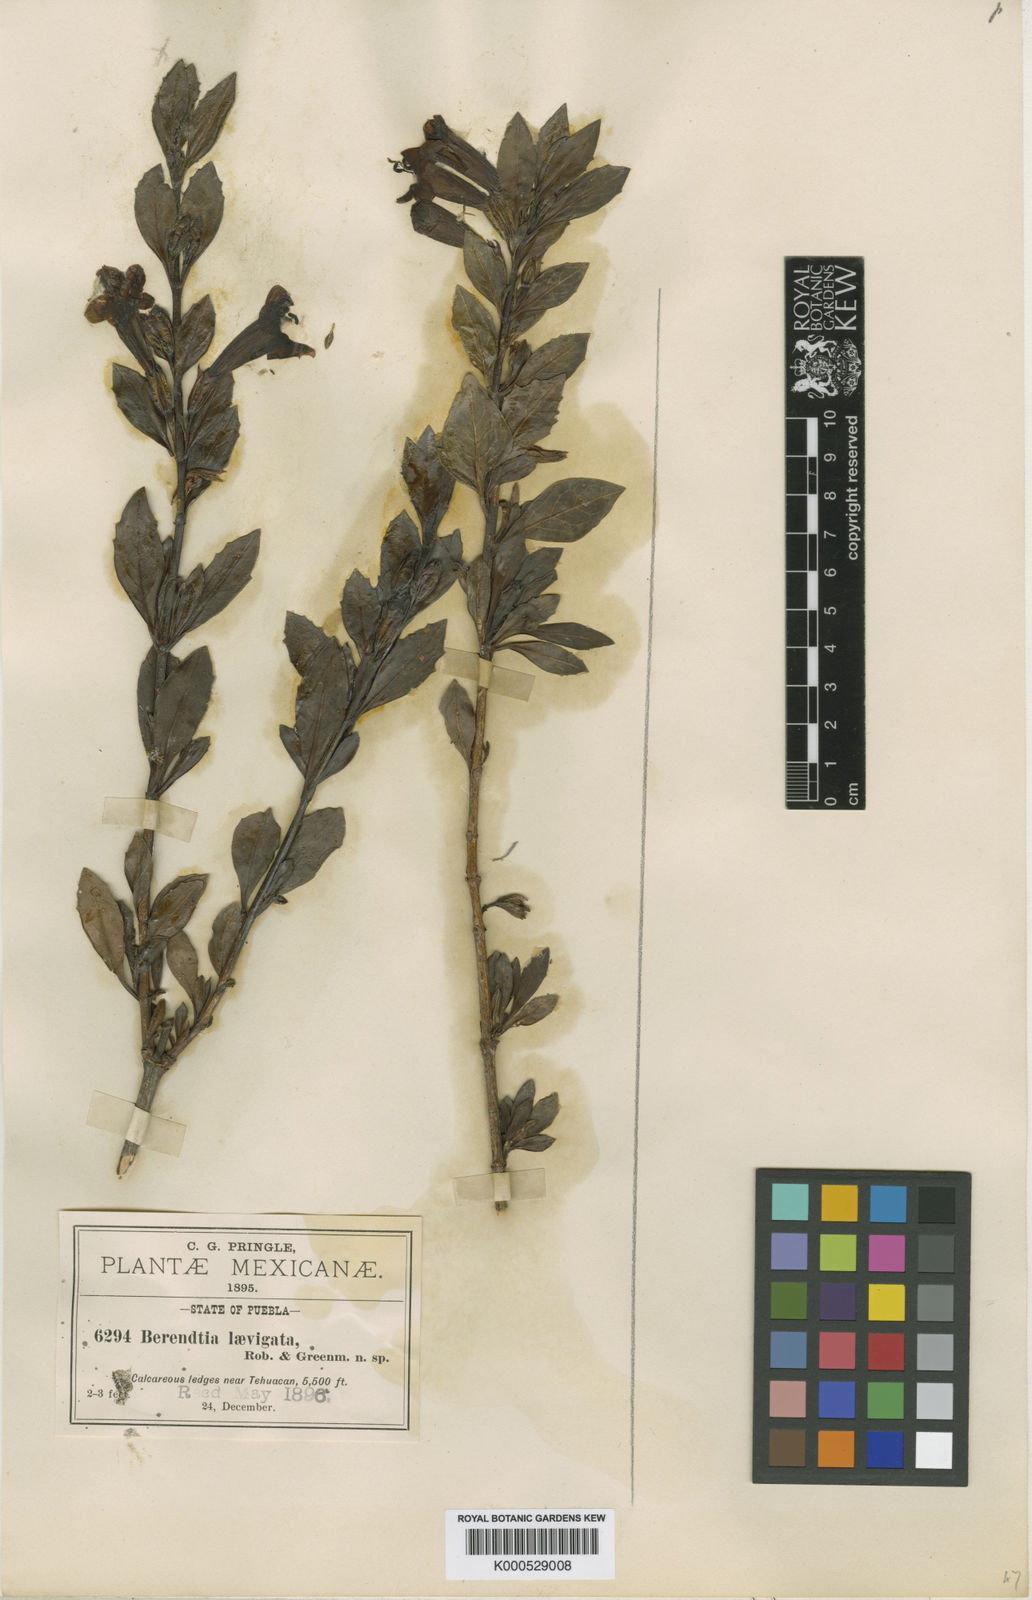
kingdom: Plantae
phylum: Tracheophyta
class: Magnoliopsida
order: Lamiales
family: Phrymaceae
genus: Hemichaena
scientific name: Hemichaena levigata
